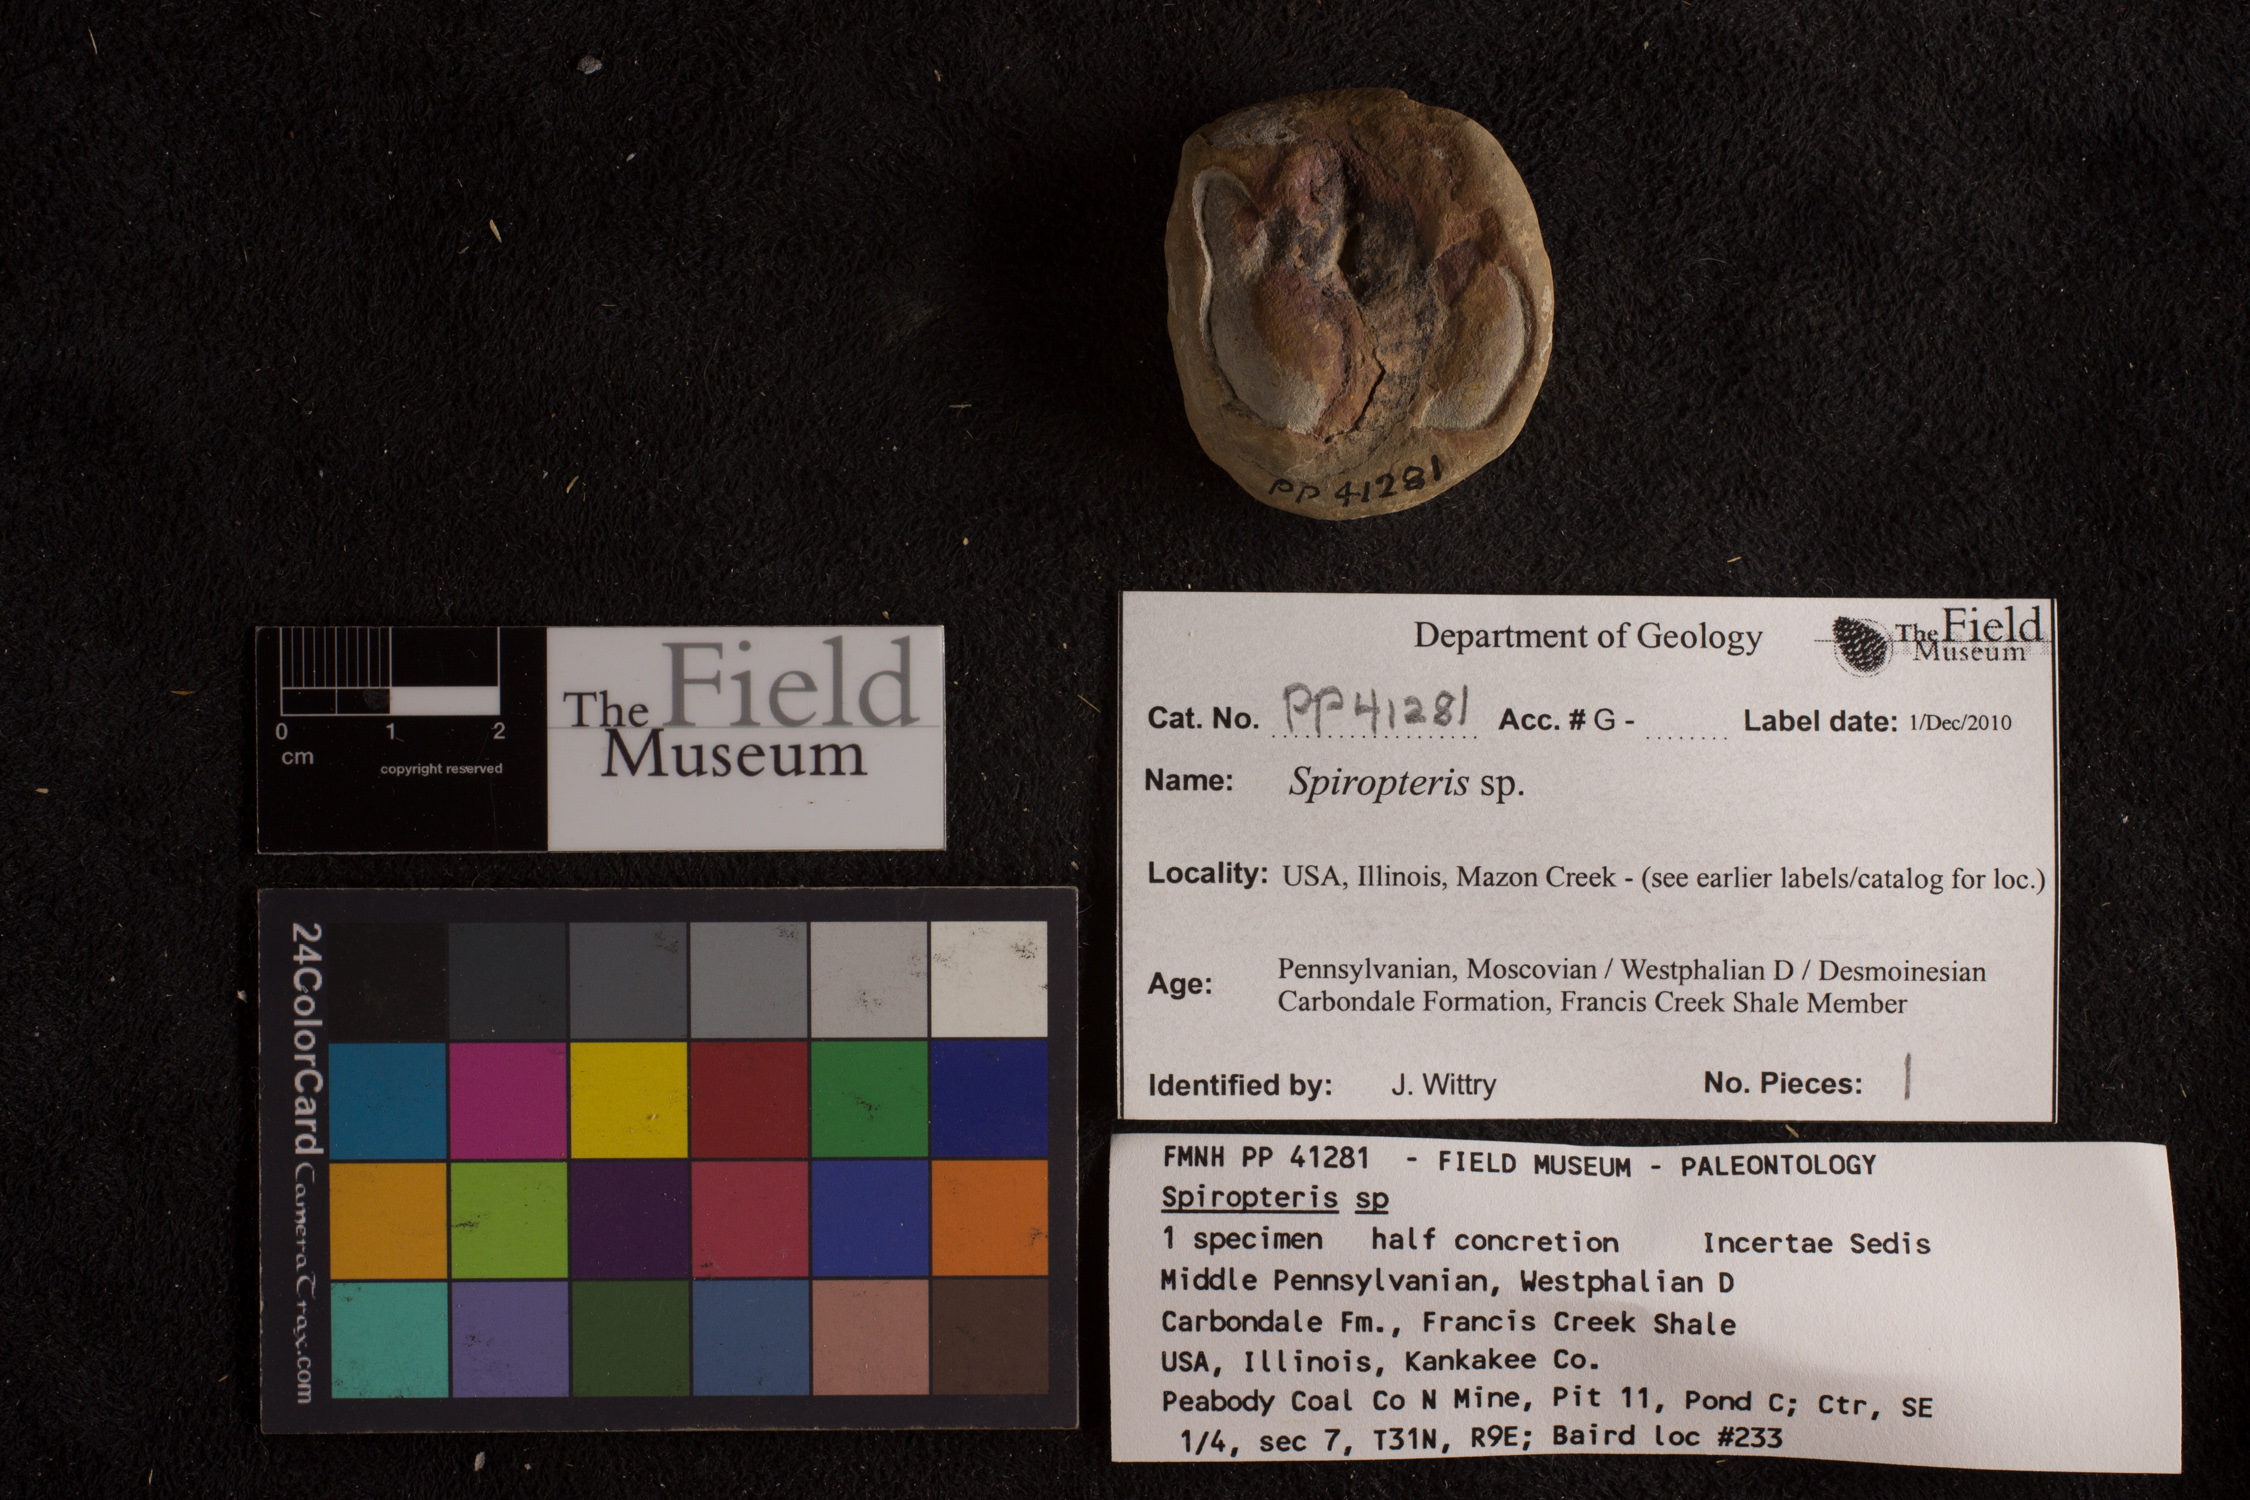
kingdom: Plantae
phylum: Tracheophyta
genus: Spiropteris
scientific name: Spiropteris
